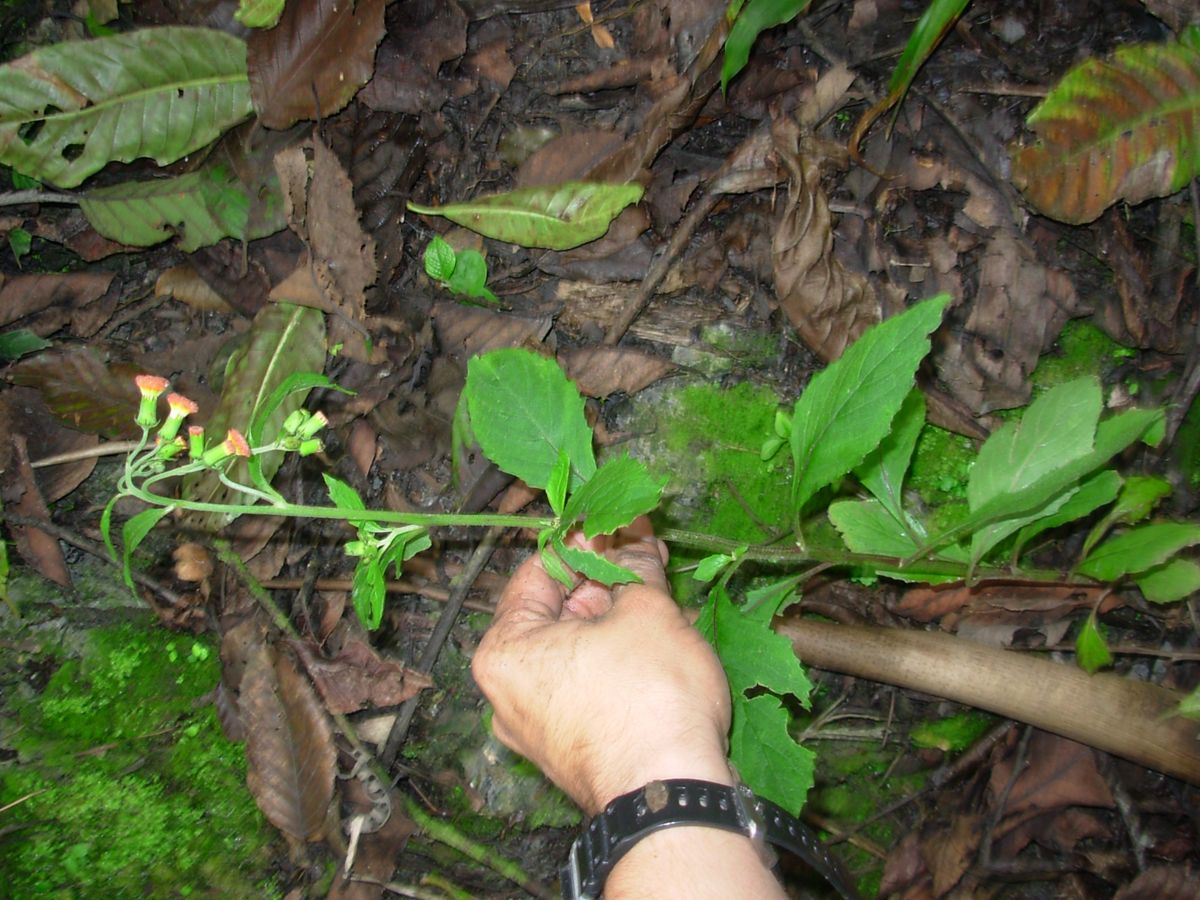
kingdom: Plantae
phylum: Tracheophyta
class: Magnoliopsida
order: Asterales
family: Asteraceae
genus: Erechtites
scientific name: Erechtites valerianifolius
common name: Tropical burnweed
